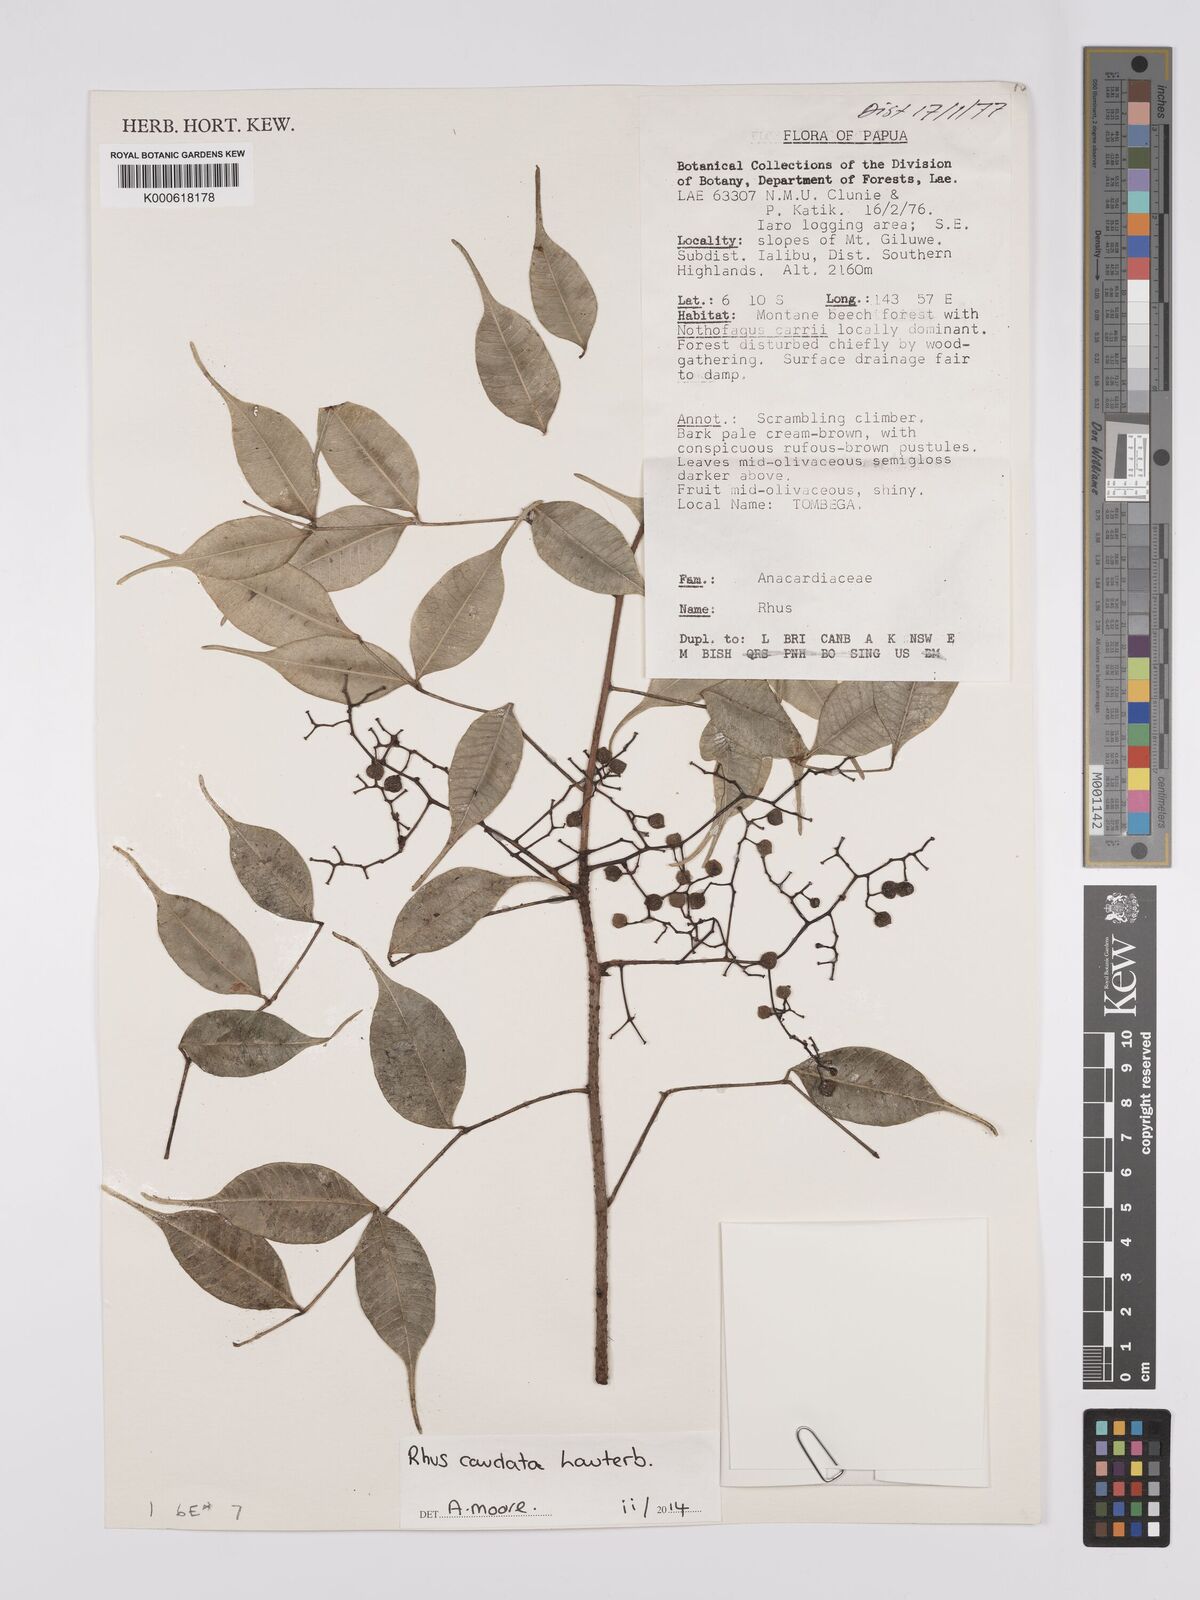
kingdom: Plantae
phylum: Tracheophyta
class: Magnoliopsida
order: Sapindales
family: Anacardiaceae
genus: Rhus
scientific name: Rhus caudata
